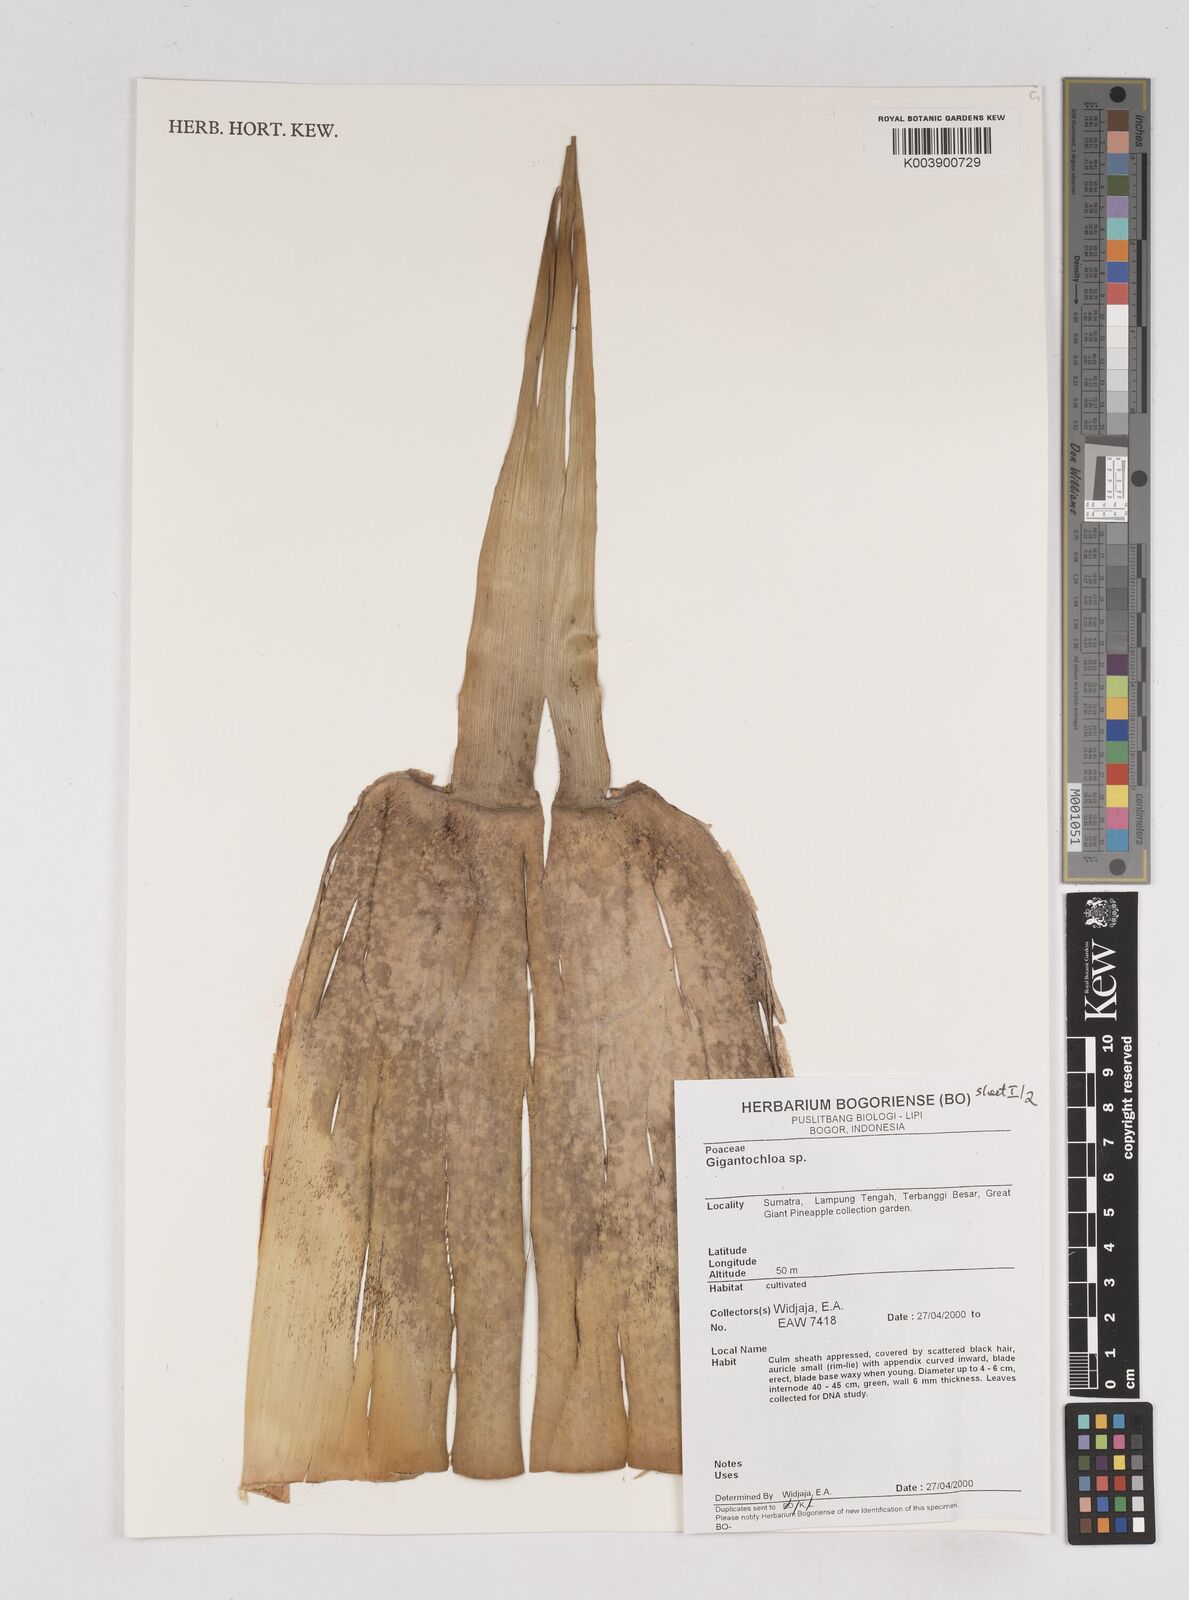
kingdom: Plantae
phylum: Tracheophyta
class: Liliopsida
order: Poales
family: Poaceae
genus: Gigantochloa
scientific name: Gigantochloa
